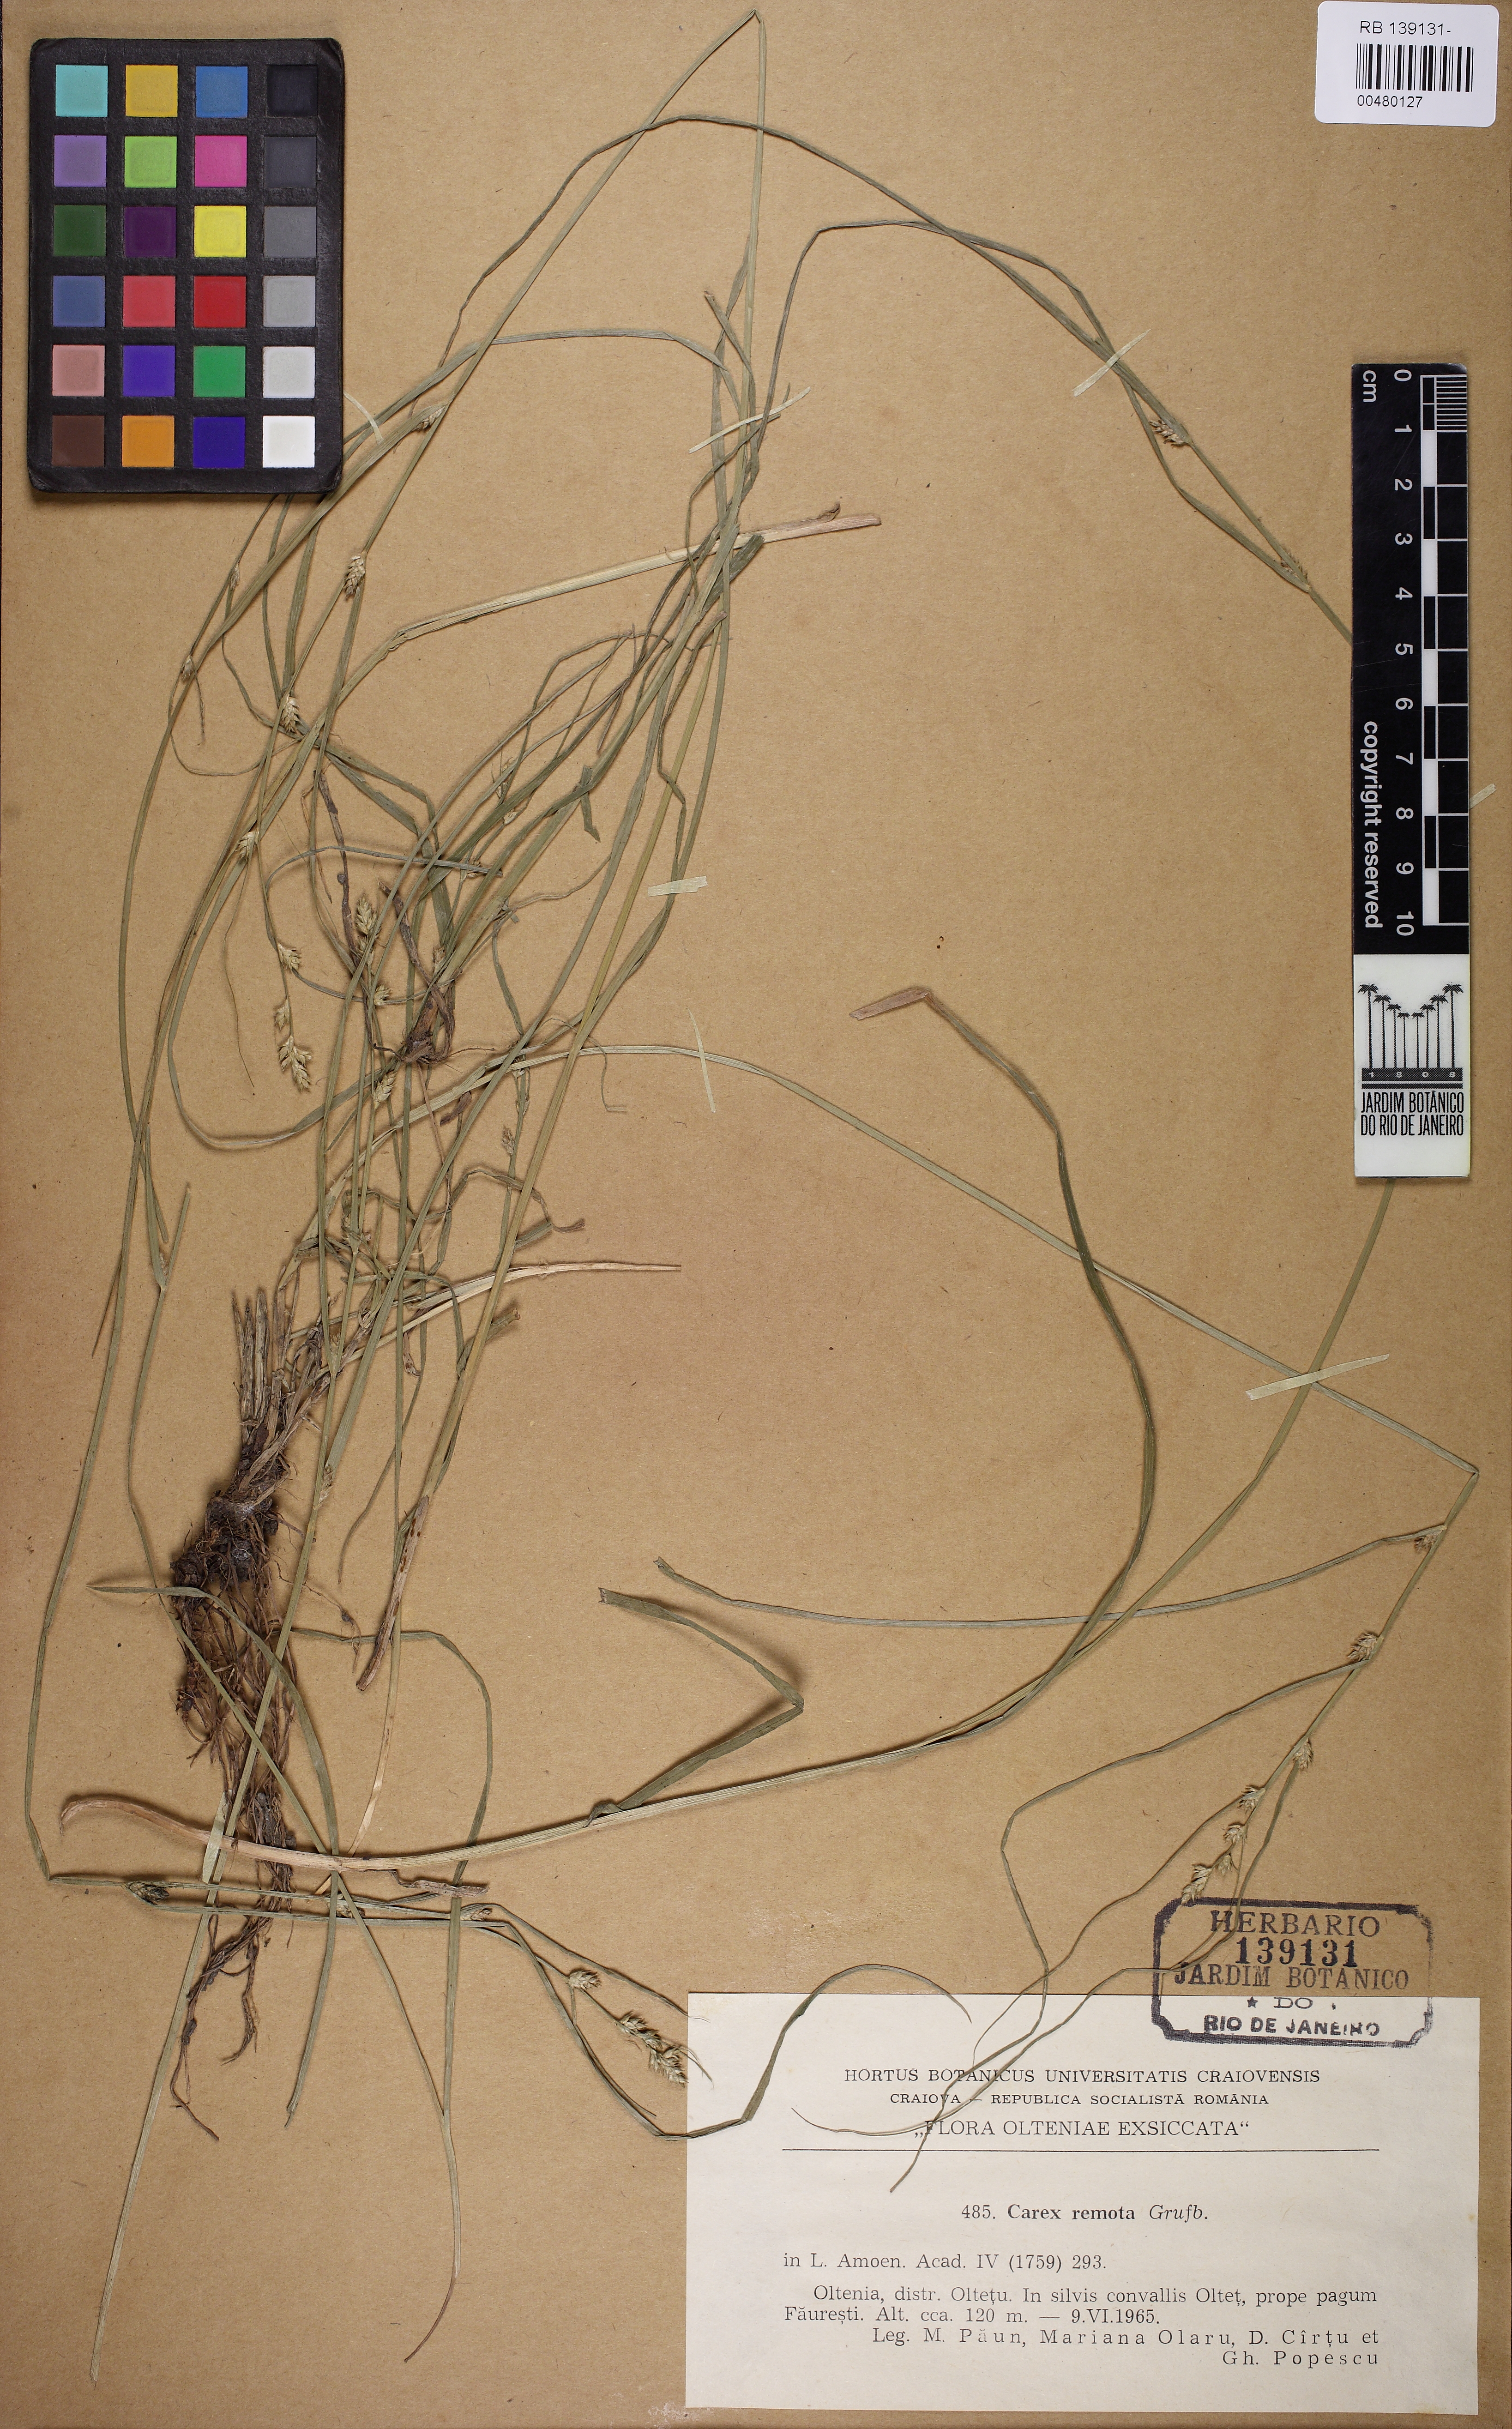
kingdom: Plantae
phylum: Tracheophyta
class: Liliopsida
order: Poales
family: Cyperaceae
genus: Carex
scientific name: Carex remota
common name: Remote sedge
